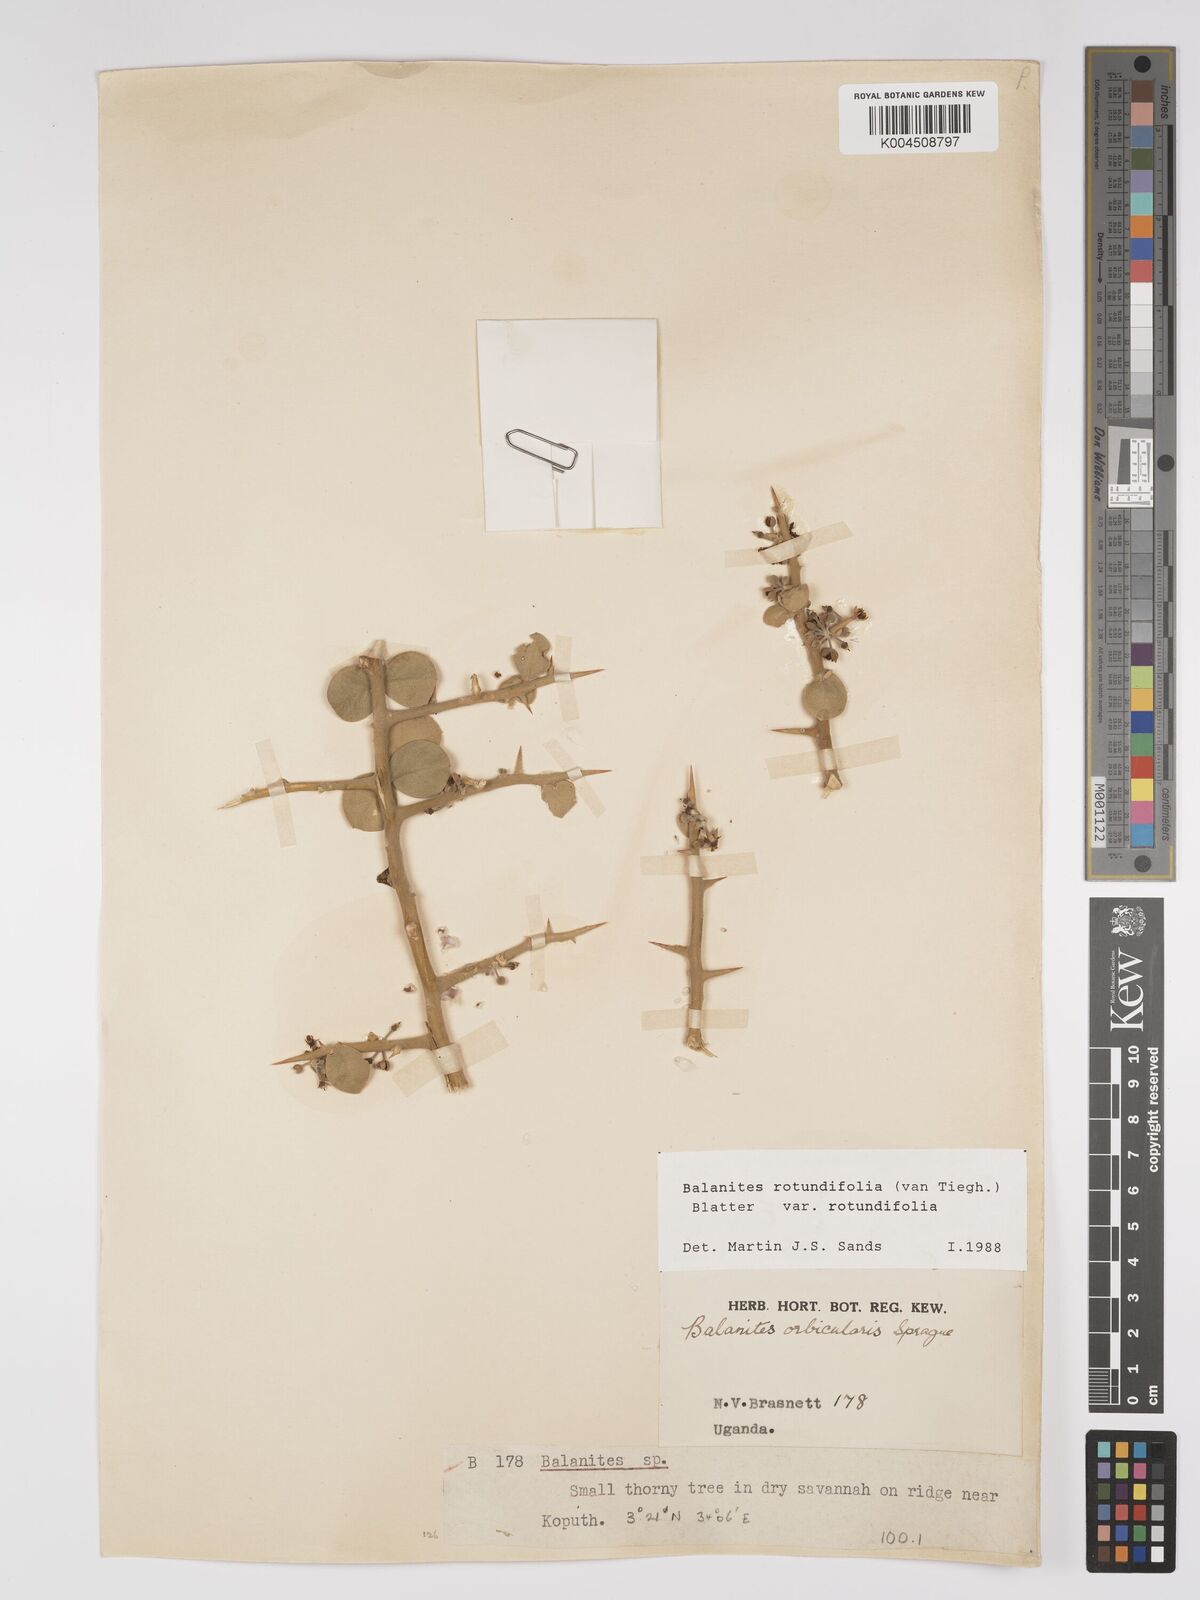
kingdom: Plantae
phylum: Tracheophyta
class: Magnoliopsida
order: Zygophyllales
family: Zygophyllaceae
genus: Balanites
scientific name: Balanites rotundifolia
